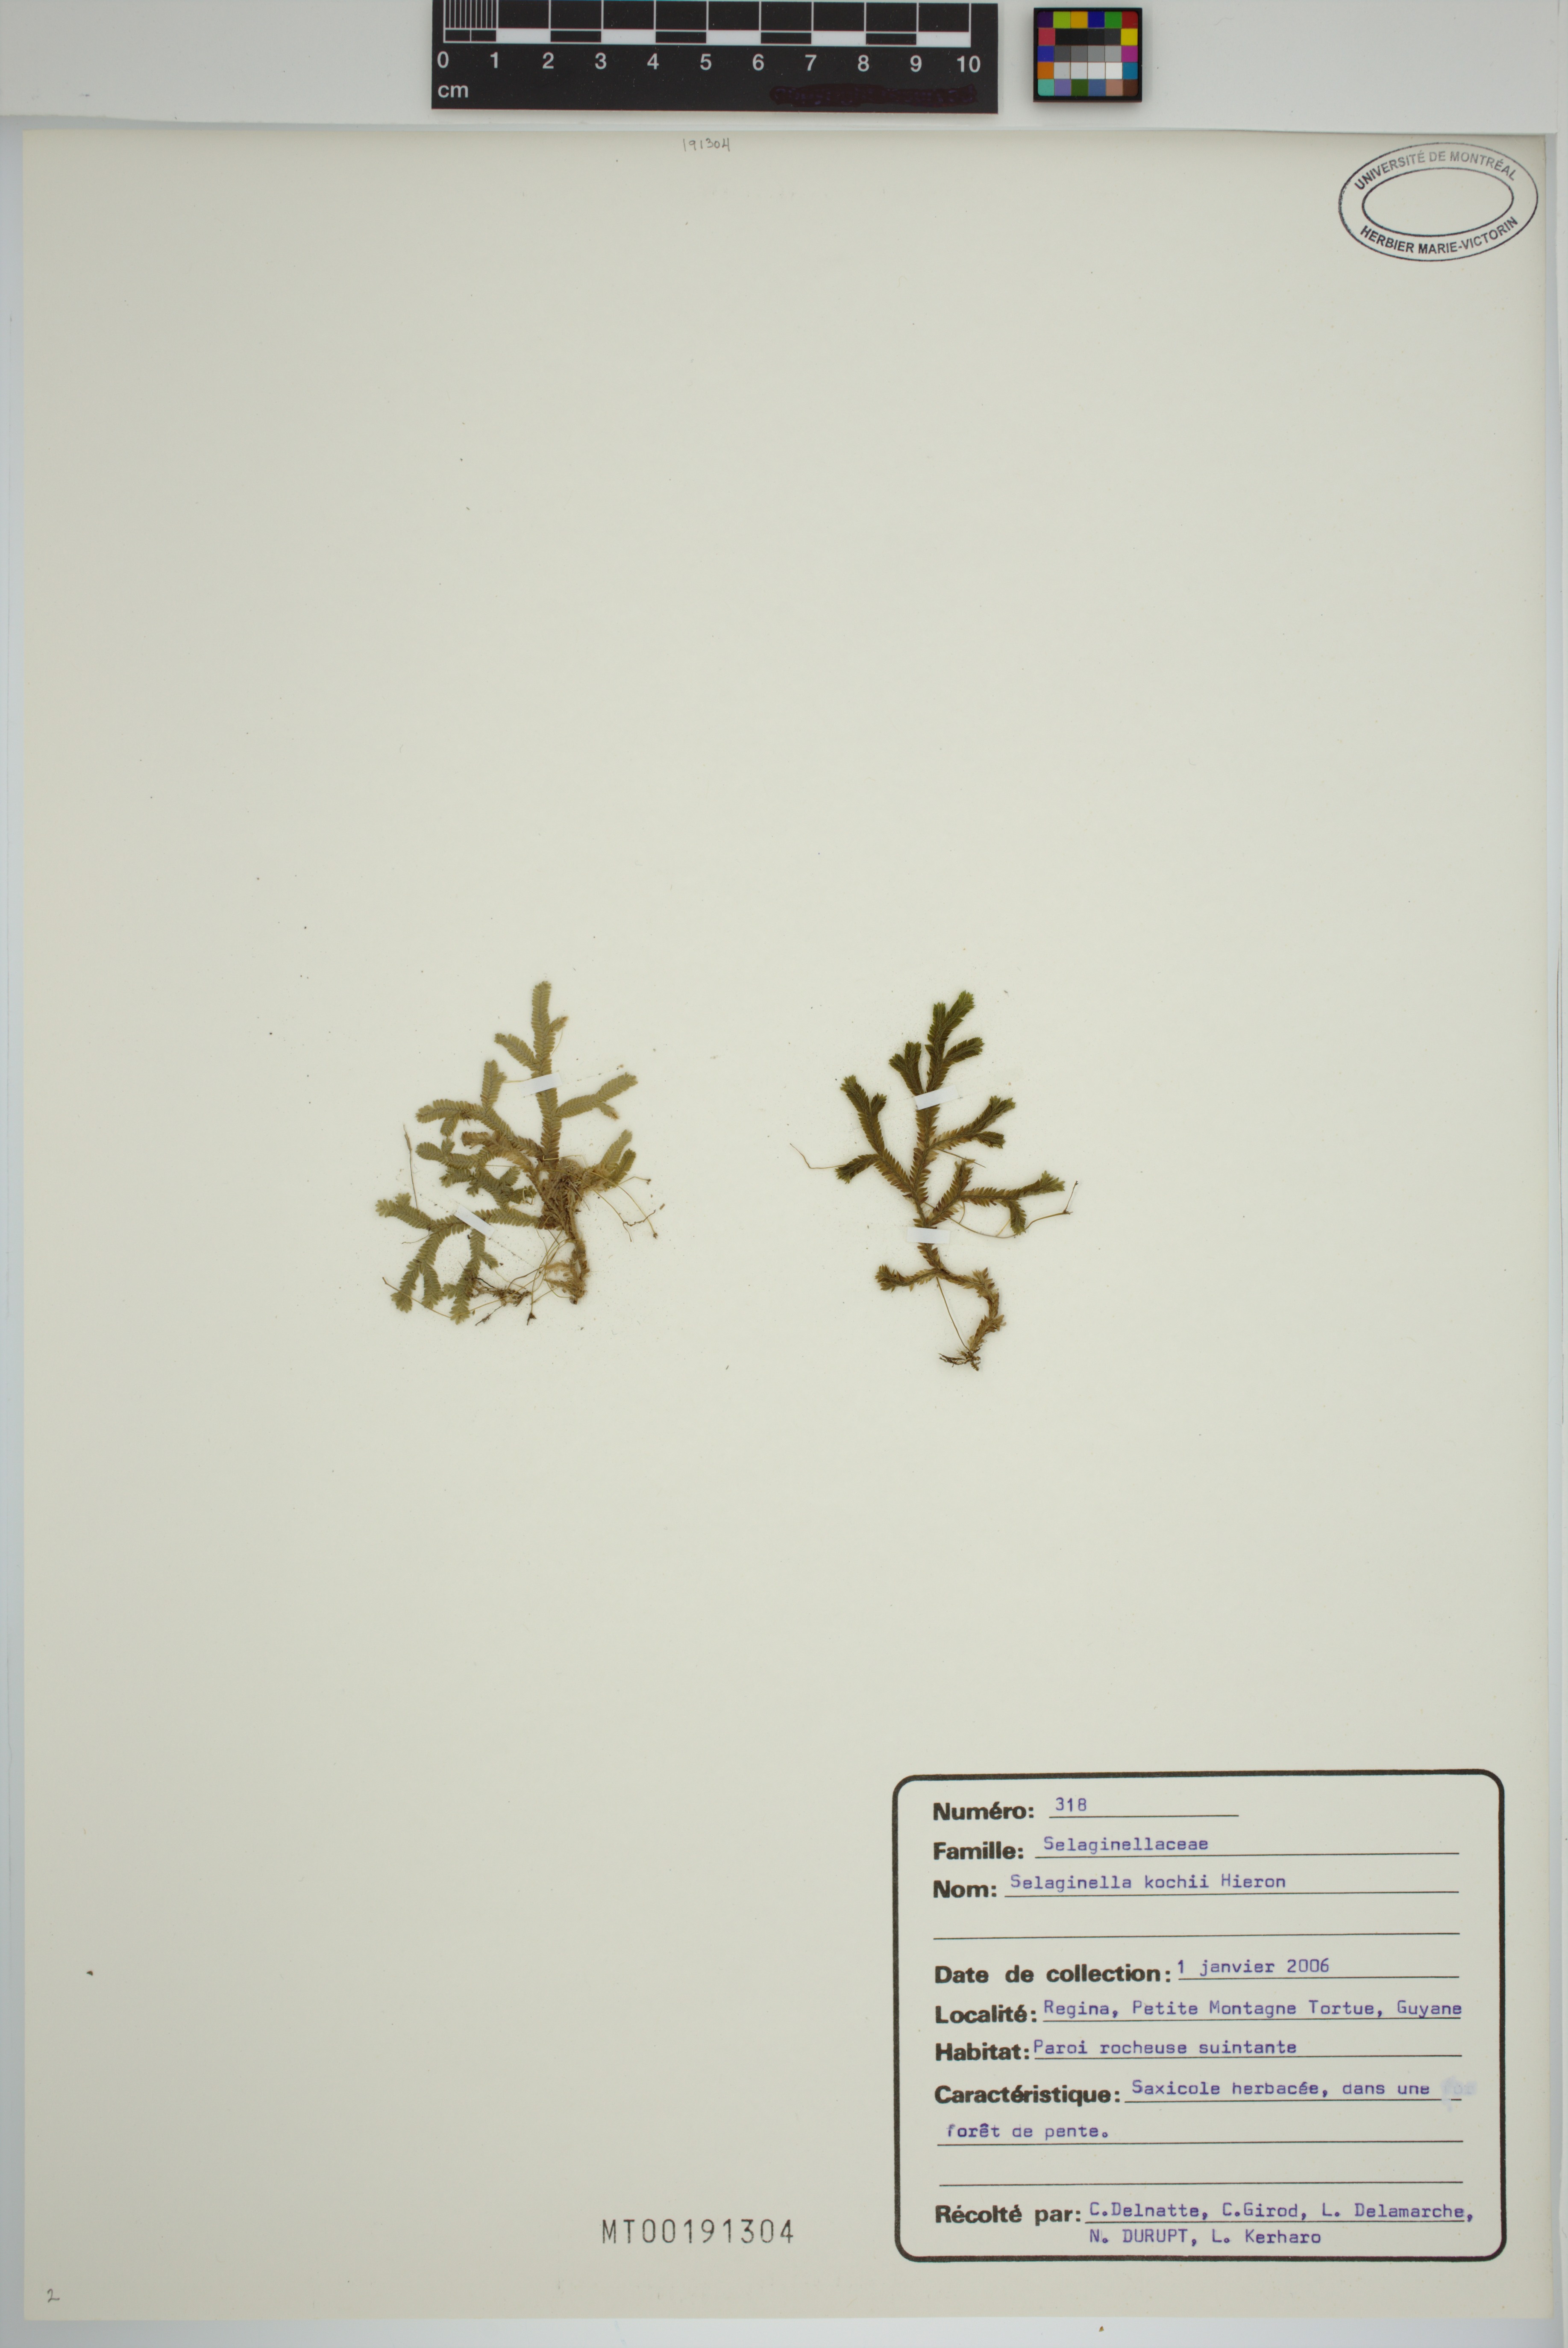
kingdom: Plantae
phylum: Tracheophyta
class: Lycopodiopsida
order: Selaginellales
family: Selaginellaceae
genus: Selaginella
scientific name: Selaginella kochii
